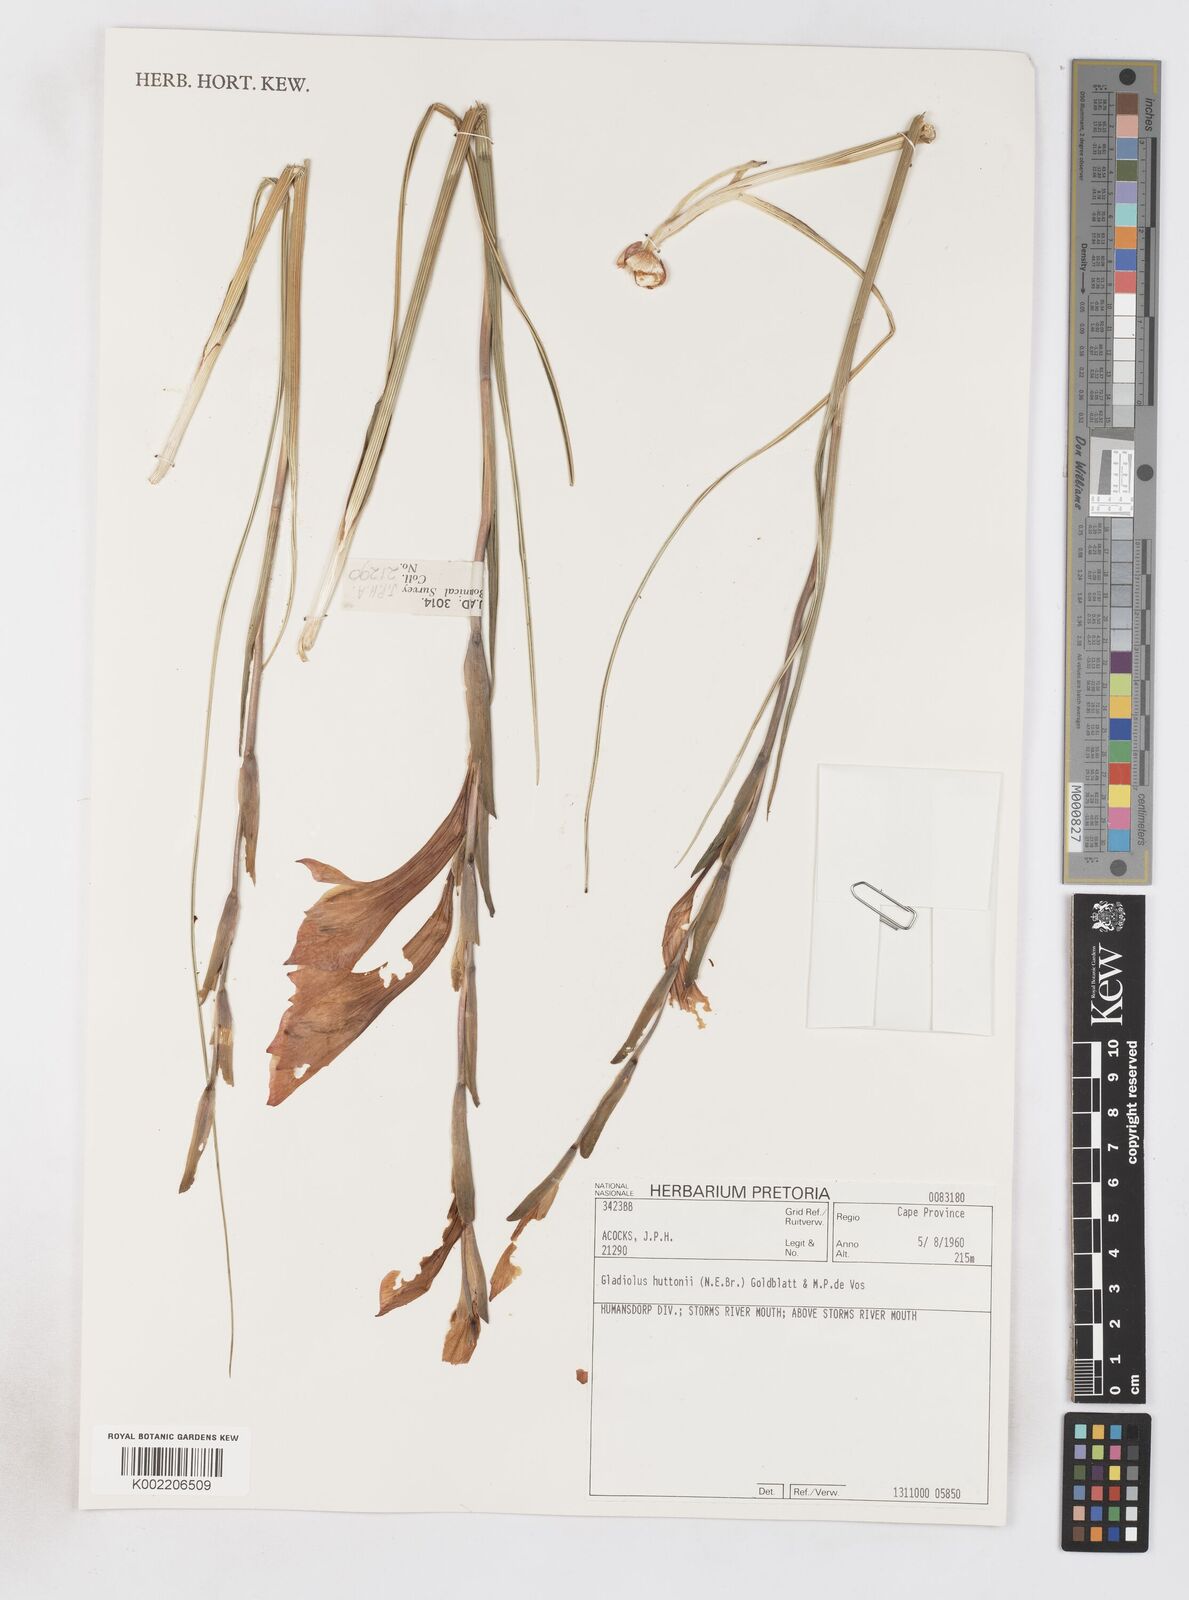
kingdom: Plantae
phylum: Tracheophyta
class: Liliopsida
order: Asparagales
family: Iridaceae
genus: Gladiolus
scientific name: Gladiolus huttonii
